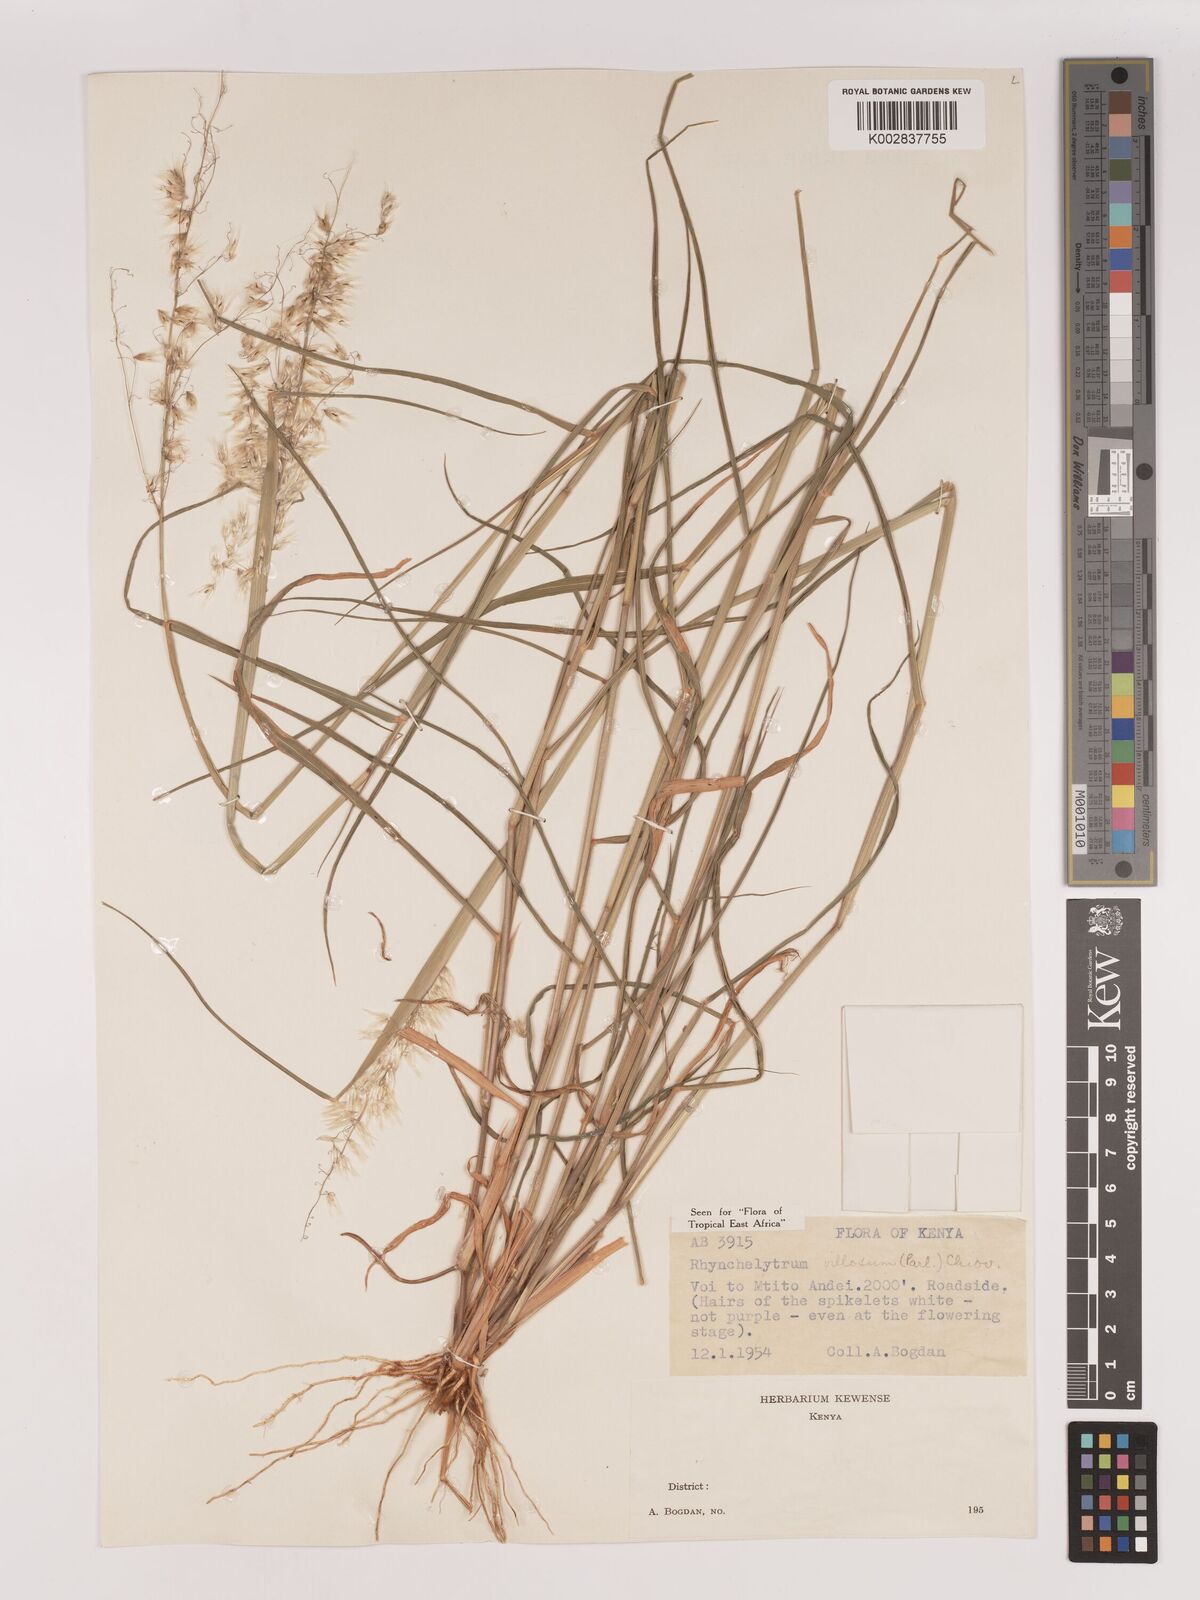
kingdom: Plantae
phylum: Tracheophyta
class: Liliopsida
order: Poales
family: Poaceae
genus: Melinis
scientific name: Melinis repens
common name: Rose natal grass
